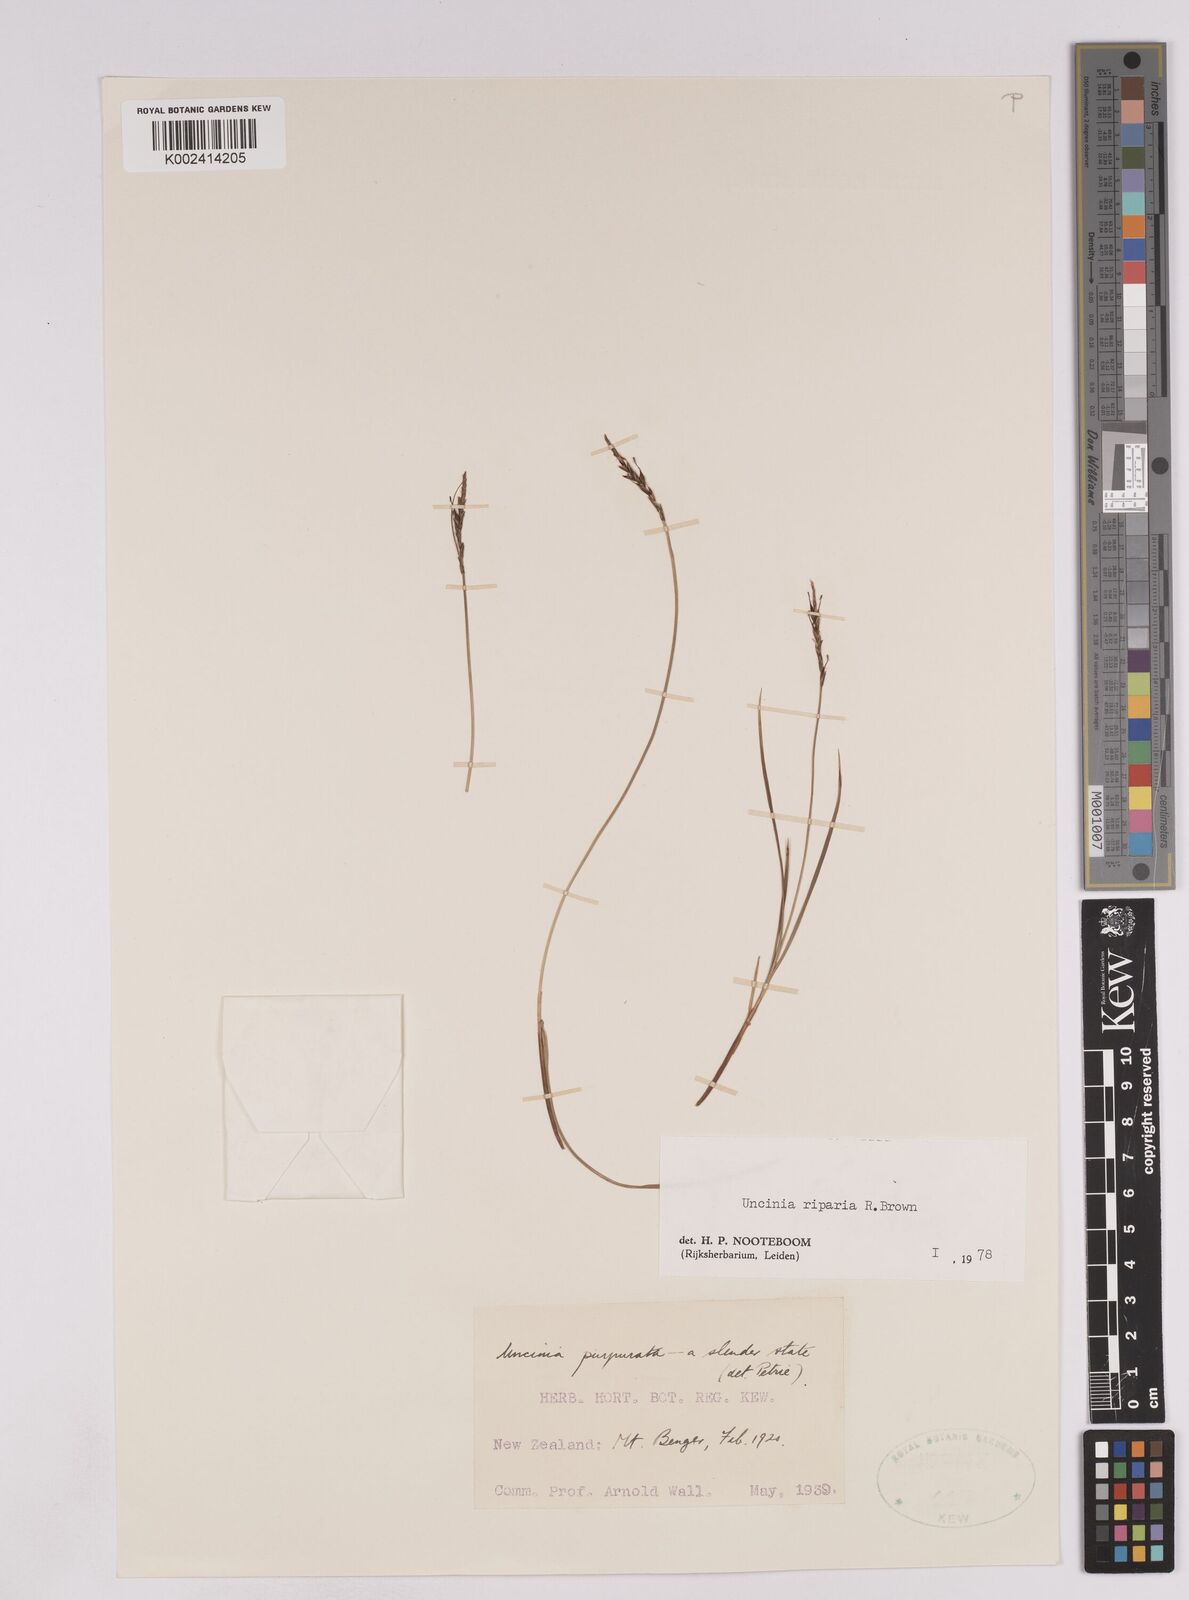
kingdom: Plantae
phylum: Tracheophyta
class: Liliopsida
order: Poales
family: Cyperaceae
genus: Carex
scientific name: Carex purpurata
